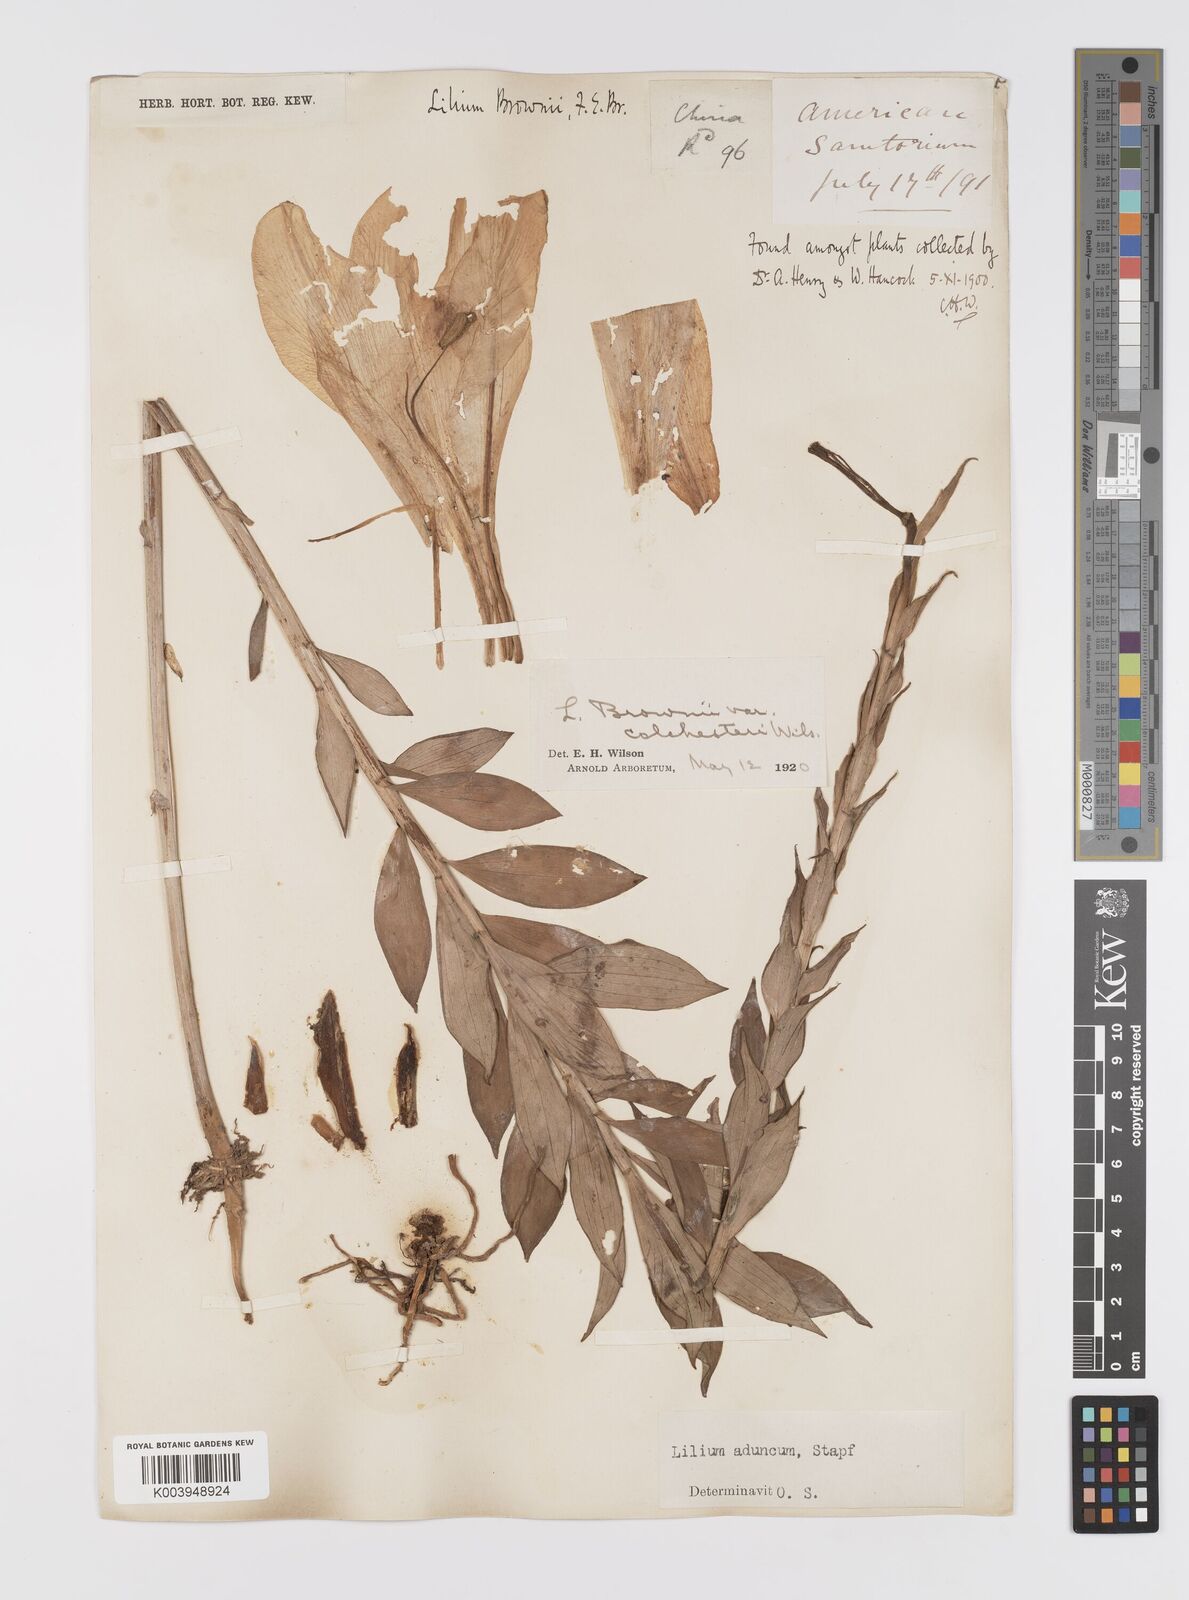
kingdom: Plantae
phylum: Tracheophyta
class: Liliopsida
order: Liliales
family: Liliaceae
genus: Lilium
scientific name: Lilium brownii
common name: Brown's lily
